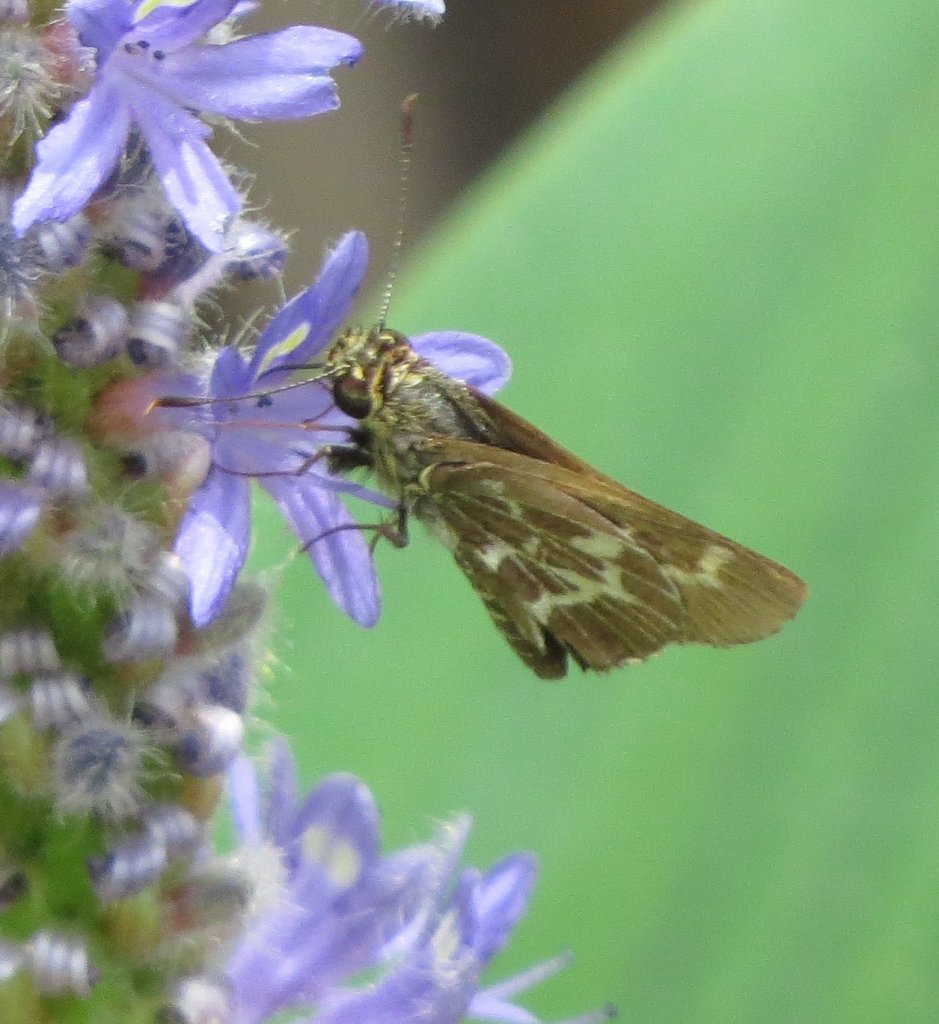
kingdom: Animalia
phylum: Arthropoda
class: Insecta
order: Lepidoptera
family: Hesperiidae
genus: Mastor
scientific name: Mastor aesculapius
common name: Lace-winged Roadside-Skipper
